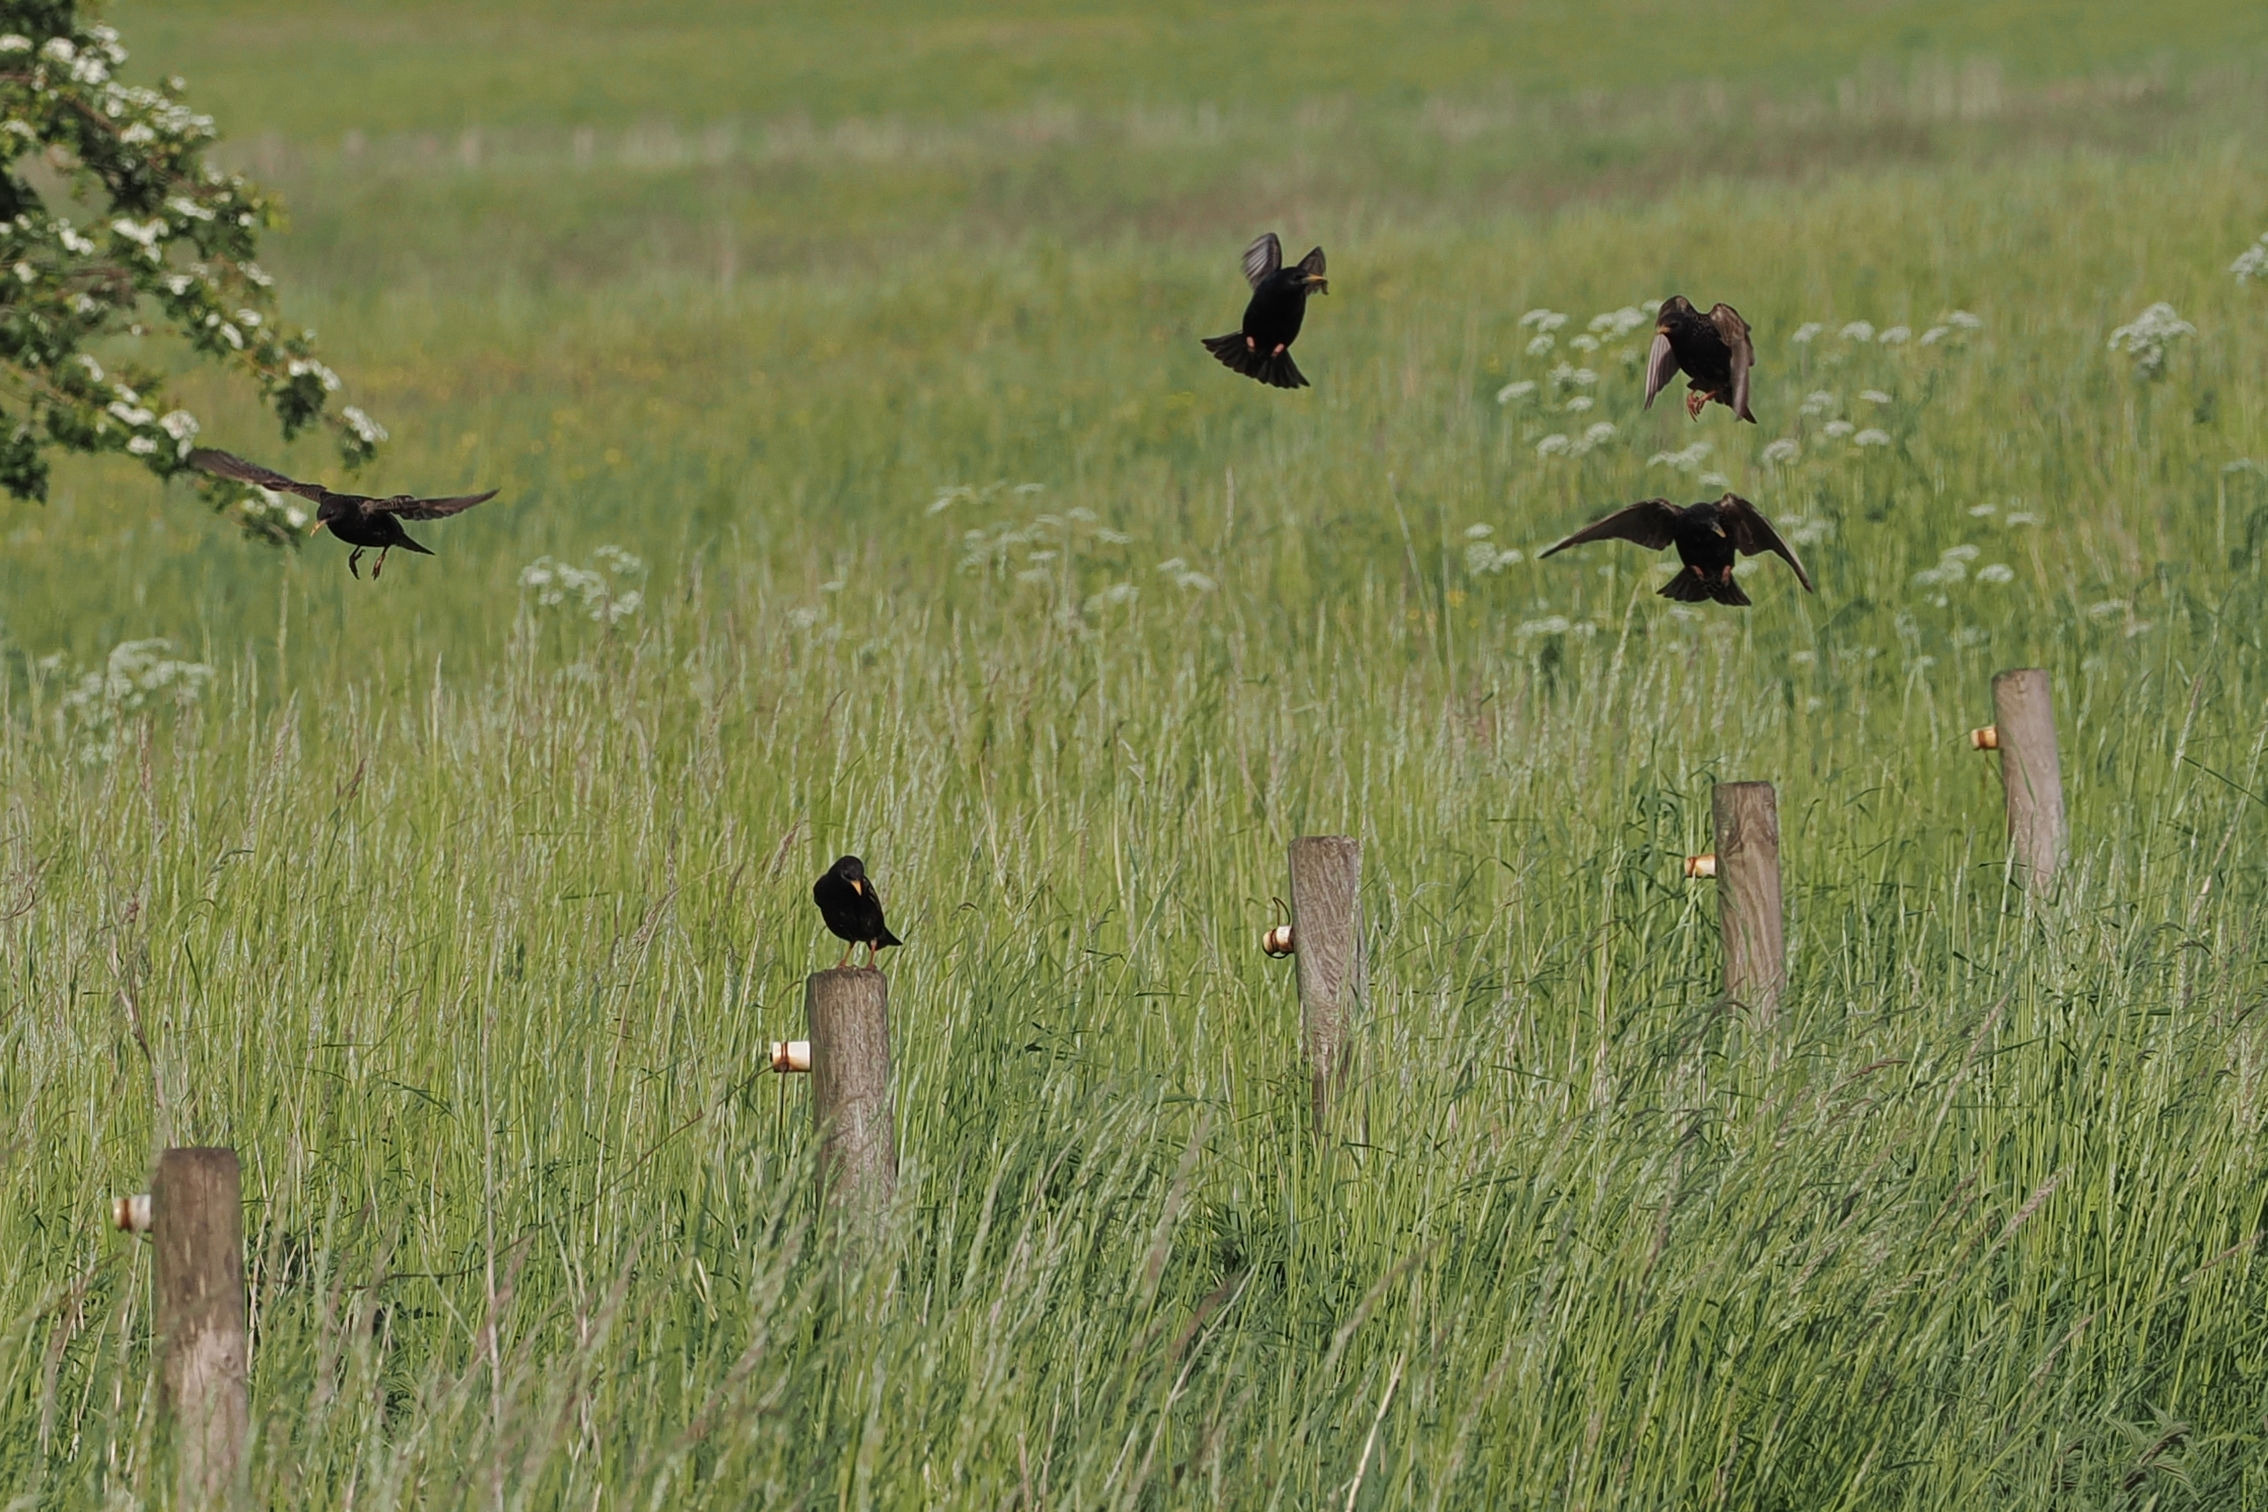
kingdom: Animalia
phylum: Chordata
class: Aves
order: Passeriformes
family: Sturnidae
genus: Sturnus
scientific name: Sturnus vulgaris
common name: Stær
